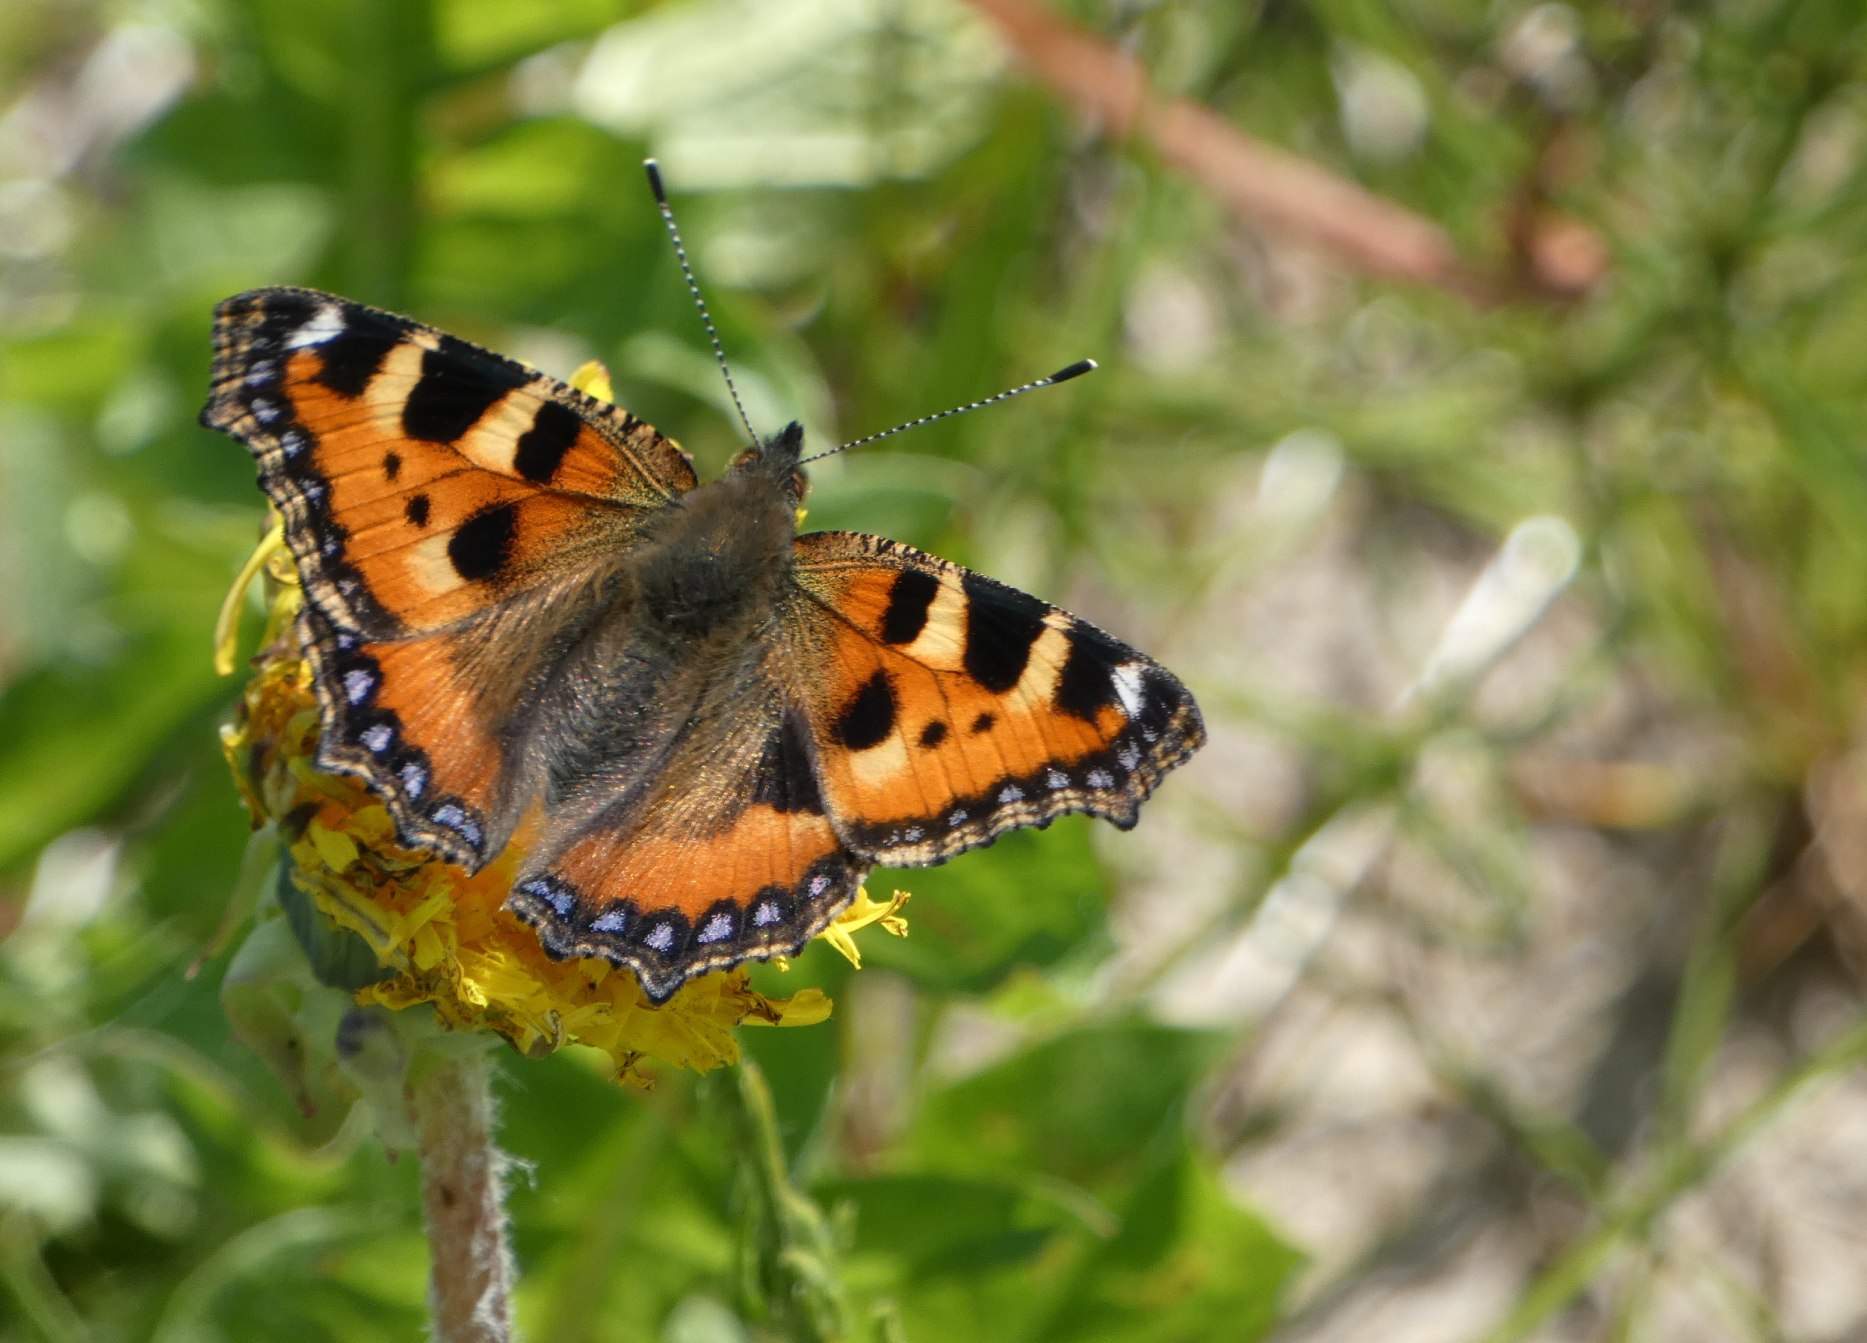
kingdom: Animalia
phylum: Arthropoda
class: Insecta
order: Lepidoptera
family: Nymphalidae
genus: Aglais
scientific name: Aglais urticae
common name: Nældens takvinge
